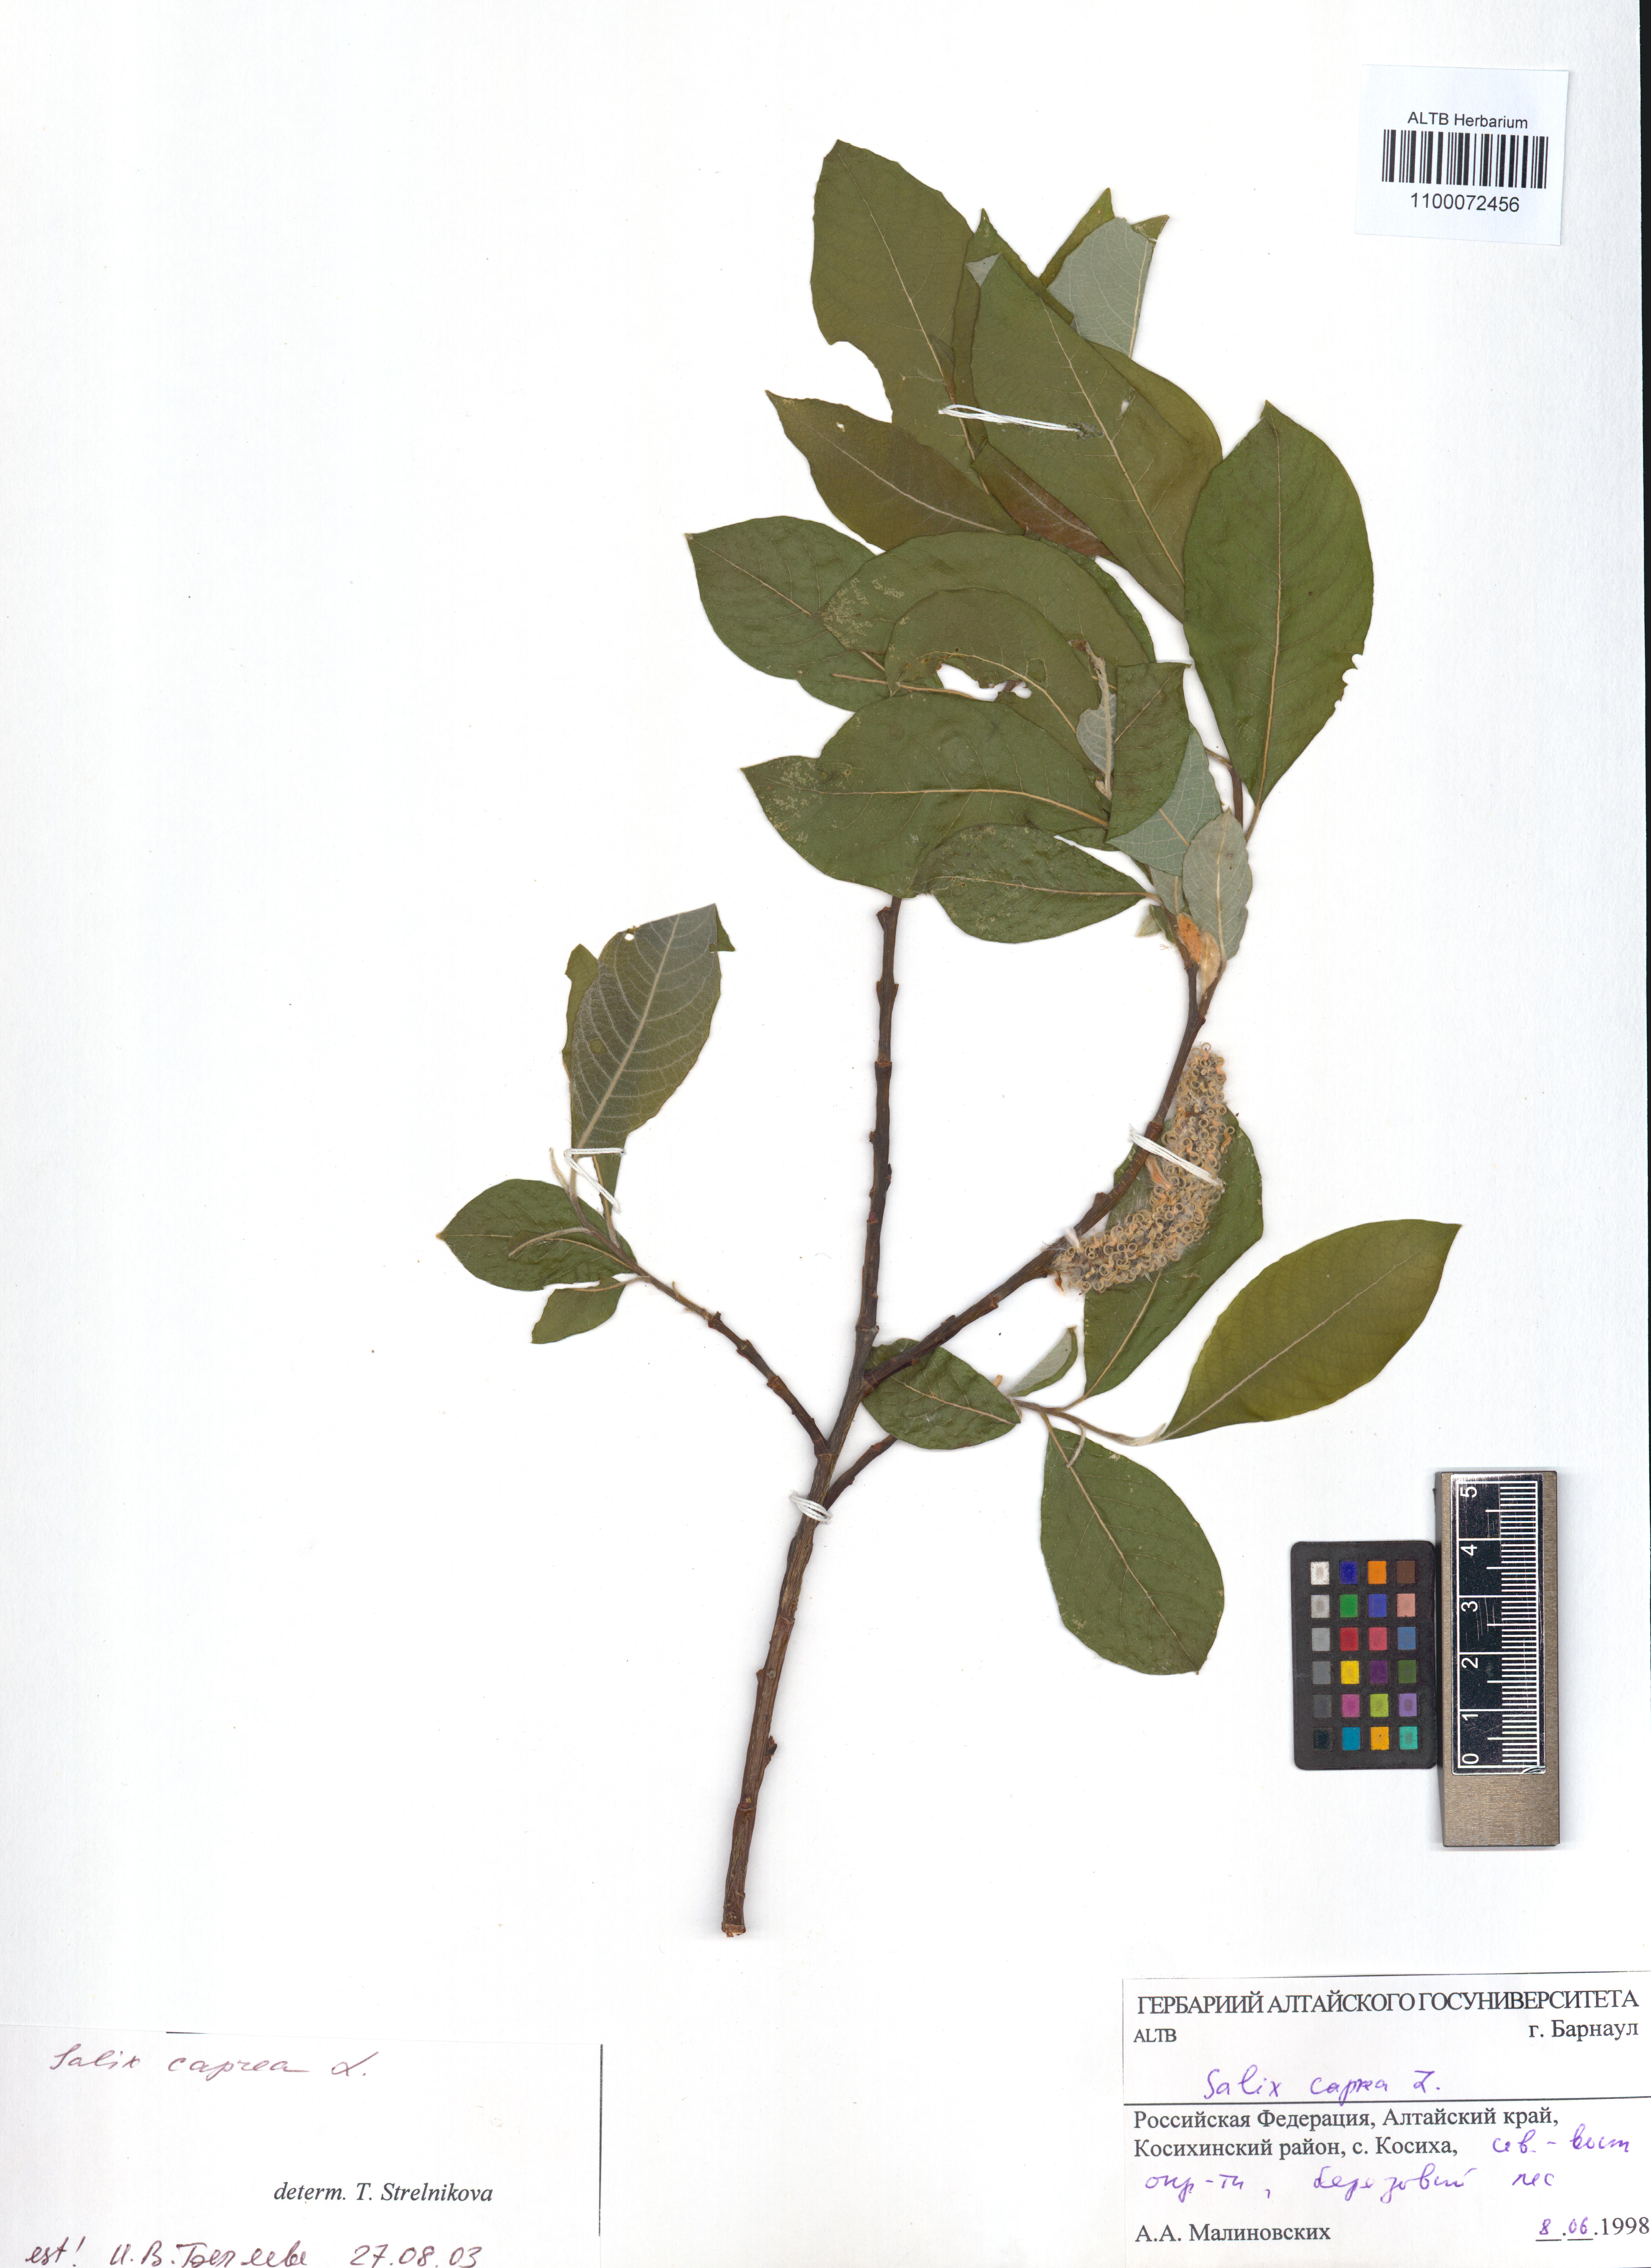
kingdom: Plantae
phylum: Tracheophyta
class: Magnoliopsida
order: Malpighiales
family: Salicaceae
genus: Salix
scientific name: Salix caprea
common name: Goat willow
